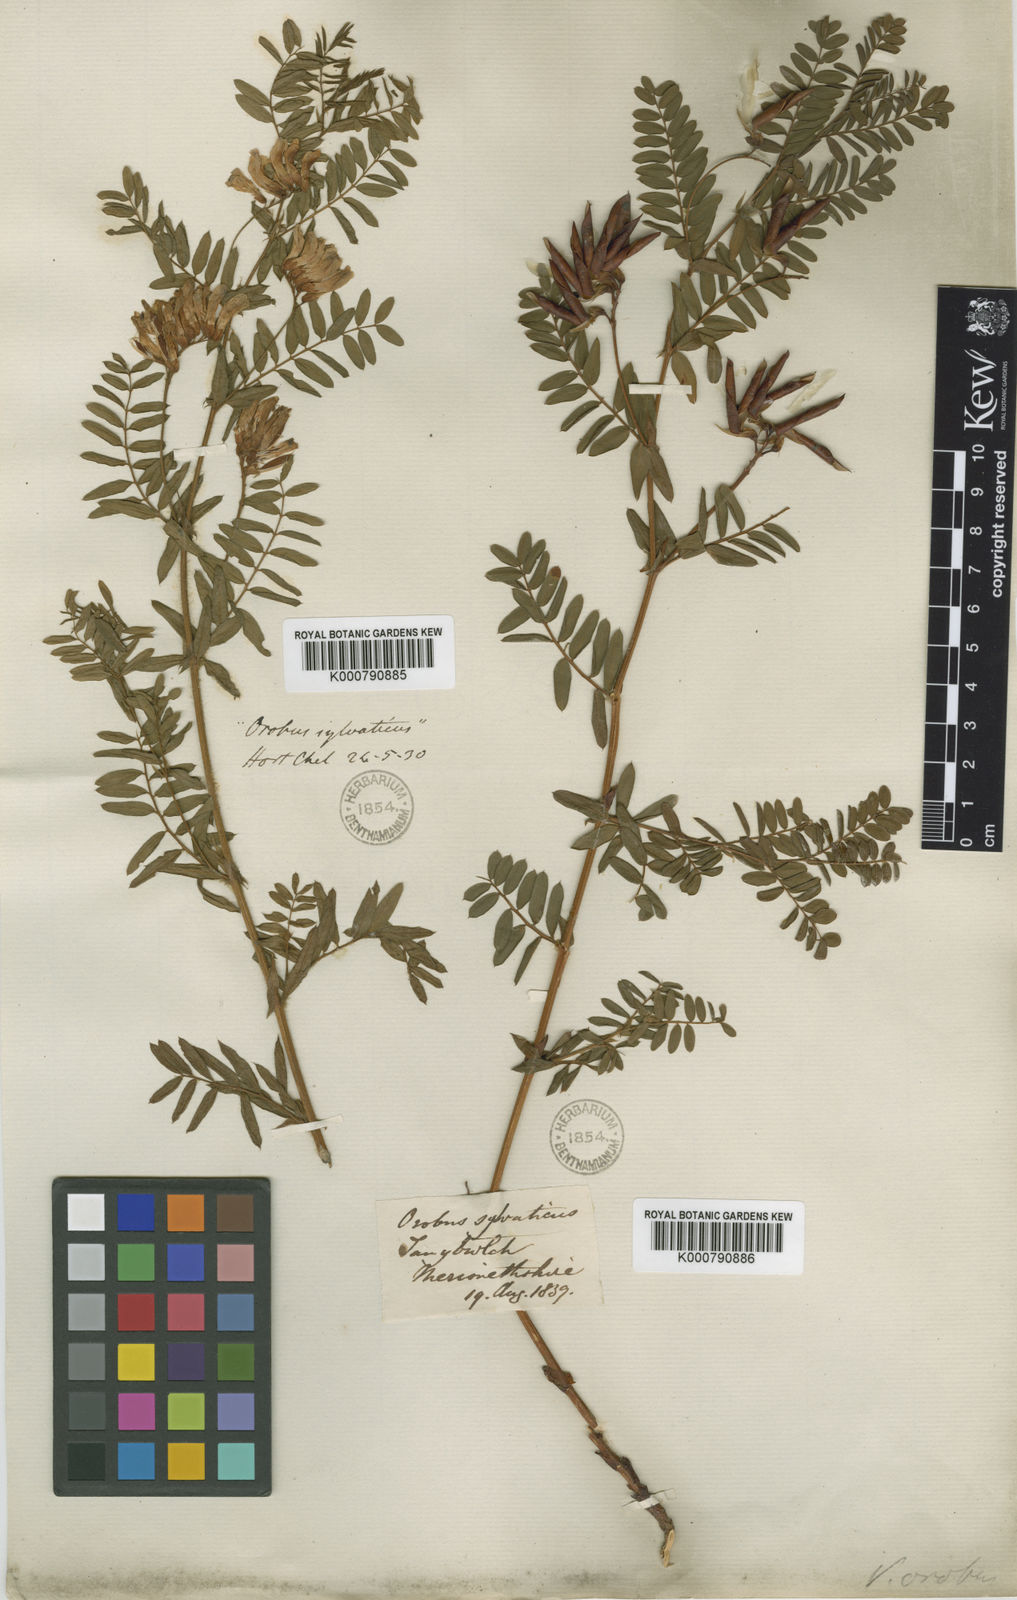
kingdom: Plantae
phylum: Tracheophyta
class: Magnoliopsida
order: Fabales
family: Fabaceae
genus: Vicia
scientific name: Vicia orobus
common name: Wood bitter-vetch
